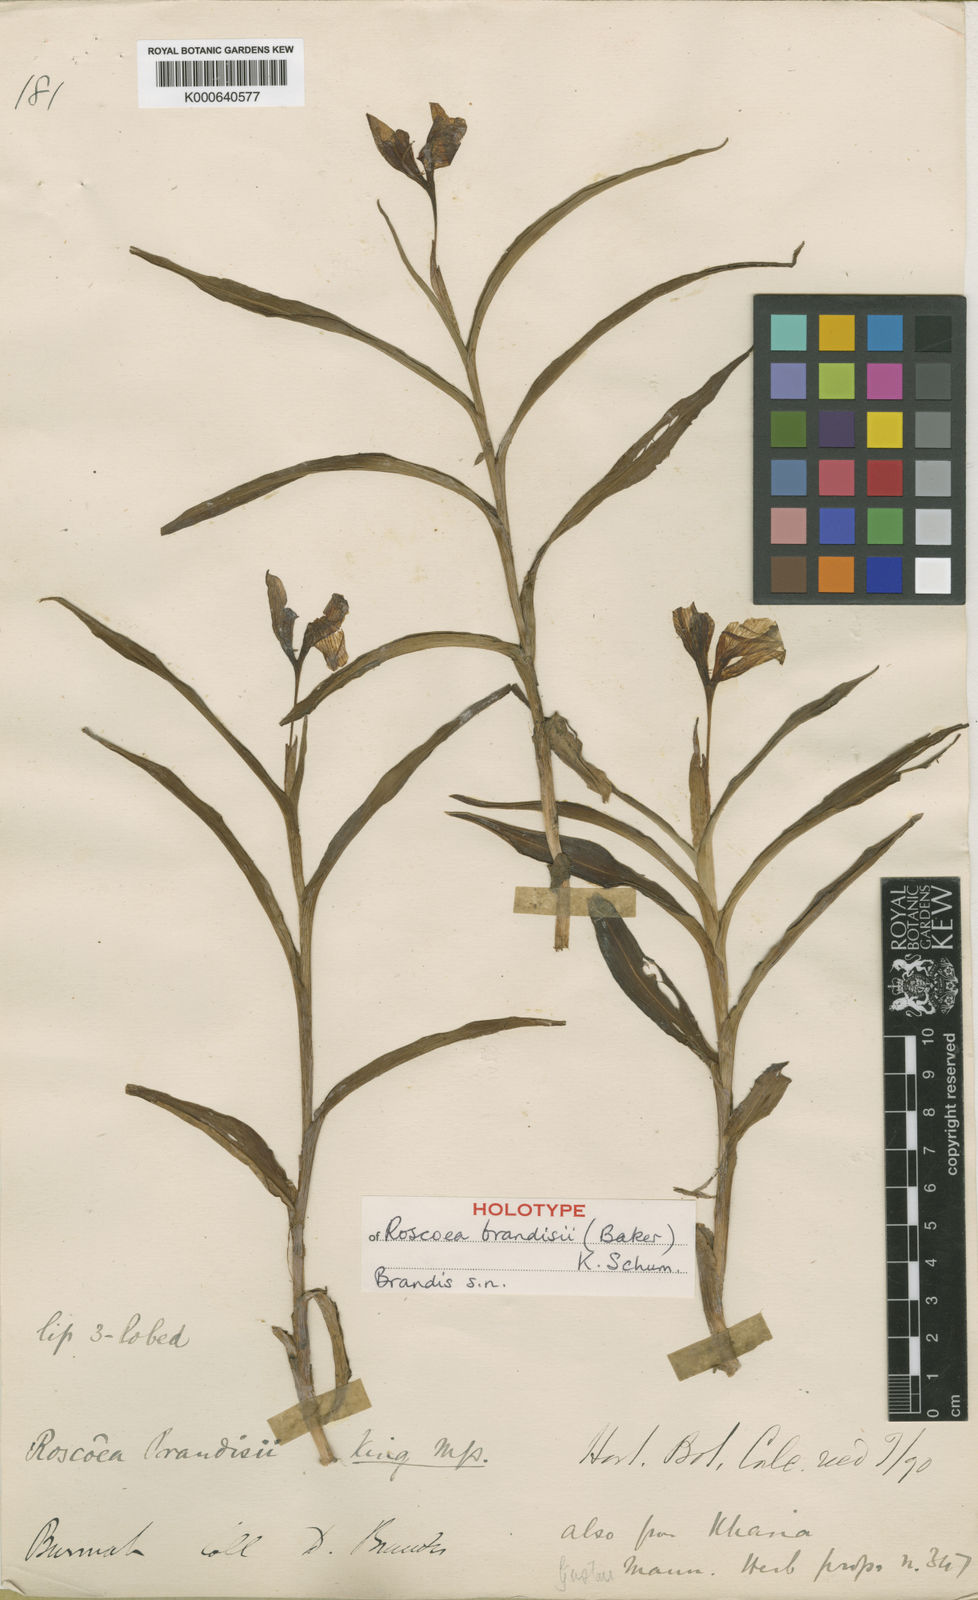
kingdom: Plantae
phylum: Tracheophyta
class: Liliopsida
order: Zingiberales
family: Zingiberaceae
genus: Roscoea
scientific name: Roscoea brandisii
